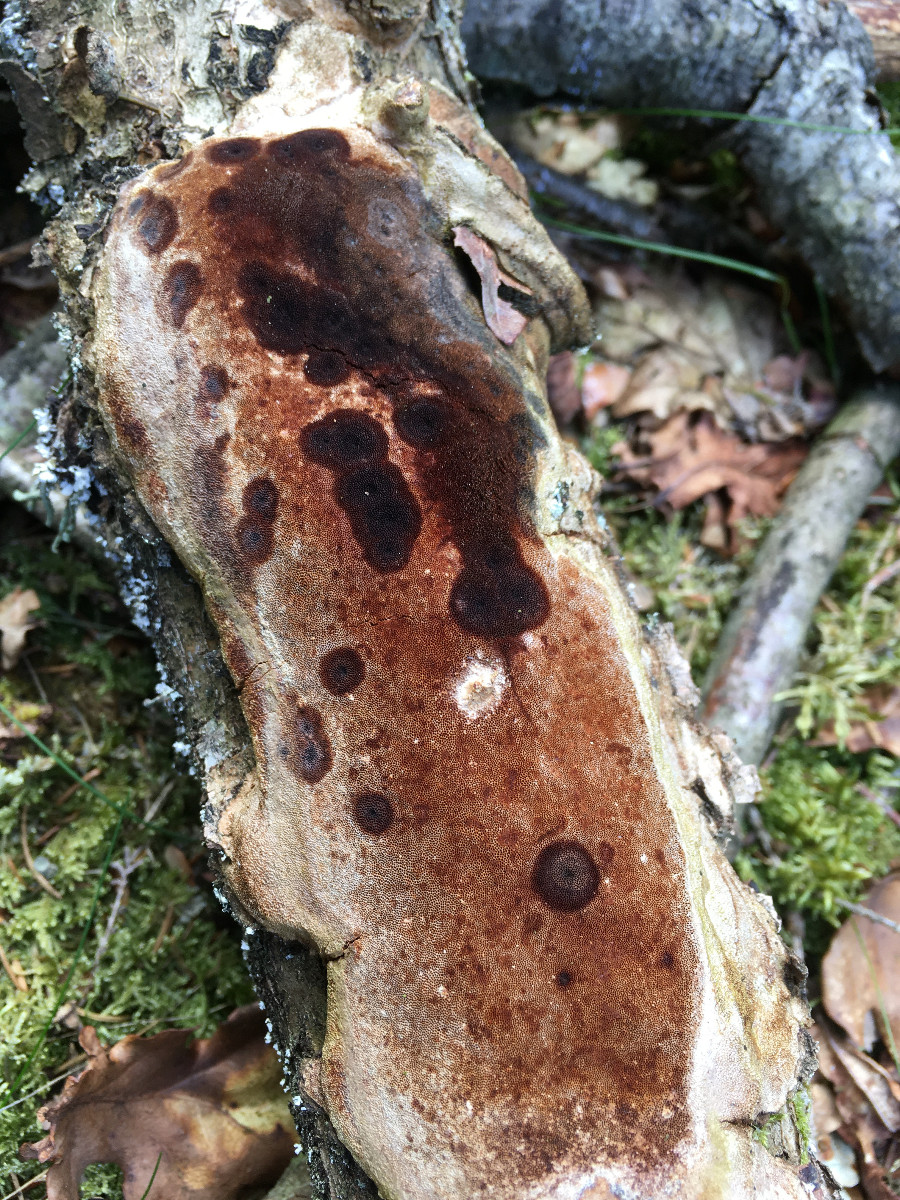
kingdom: Fungi
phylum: Basidiomycota
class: Agaricomycetes
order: Hymenochaetales
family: Hymenochaetaceae
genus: Fuscoporia
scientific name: Fuscoporia ferrea
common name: skorpe-ildporesvamp
